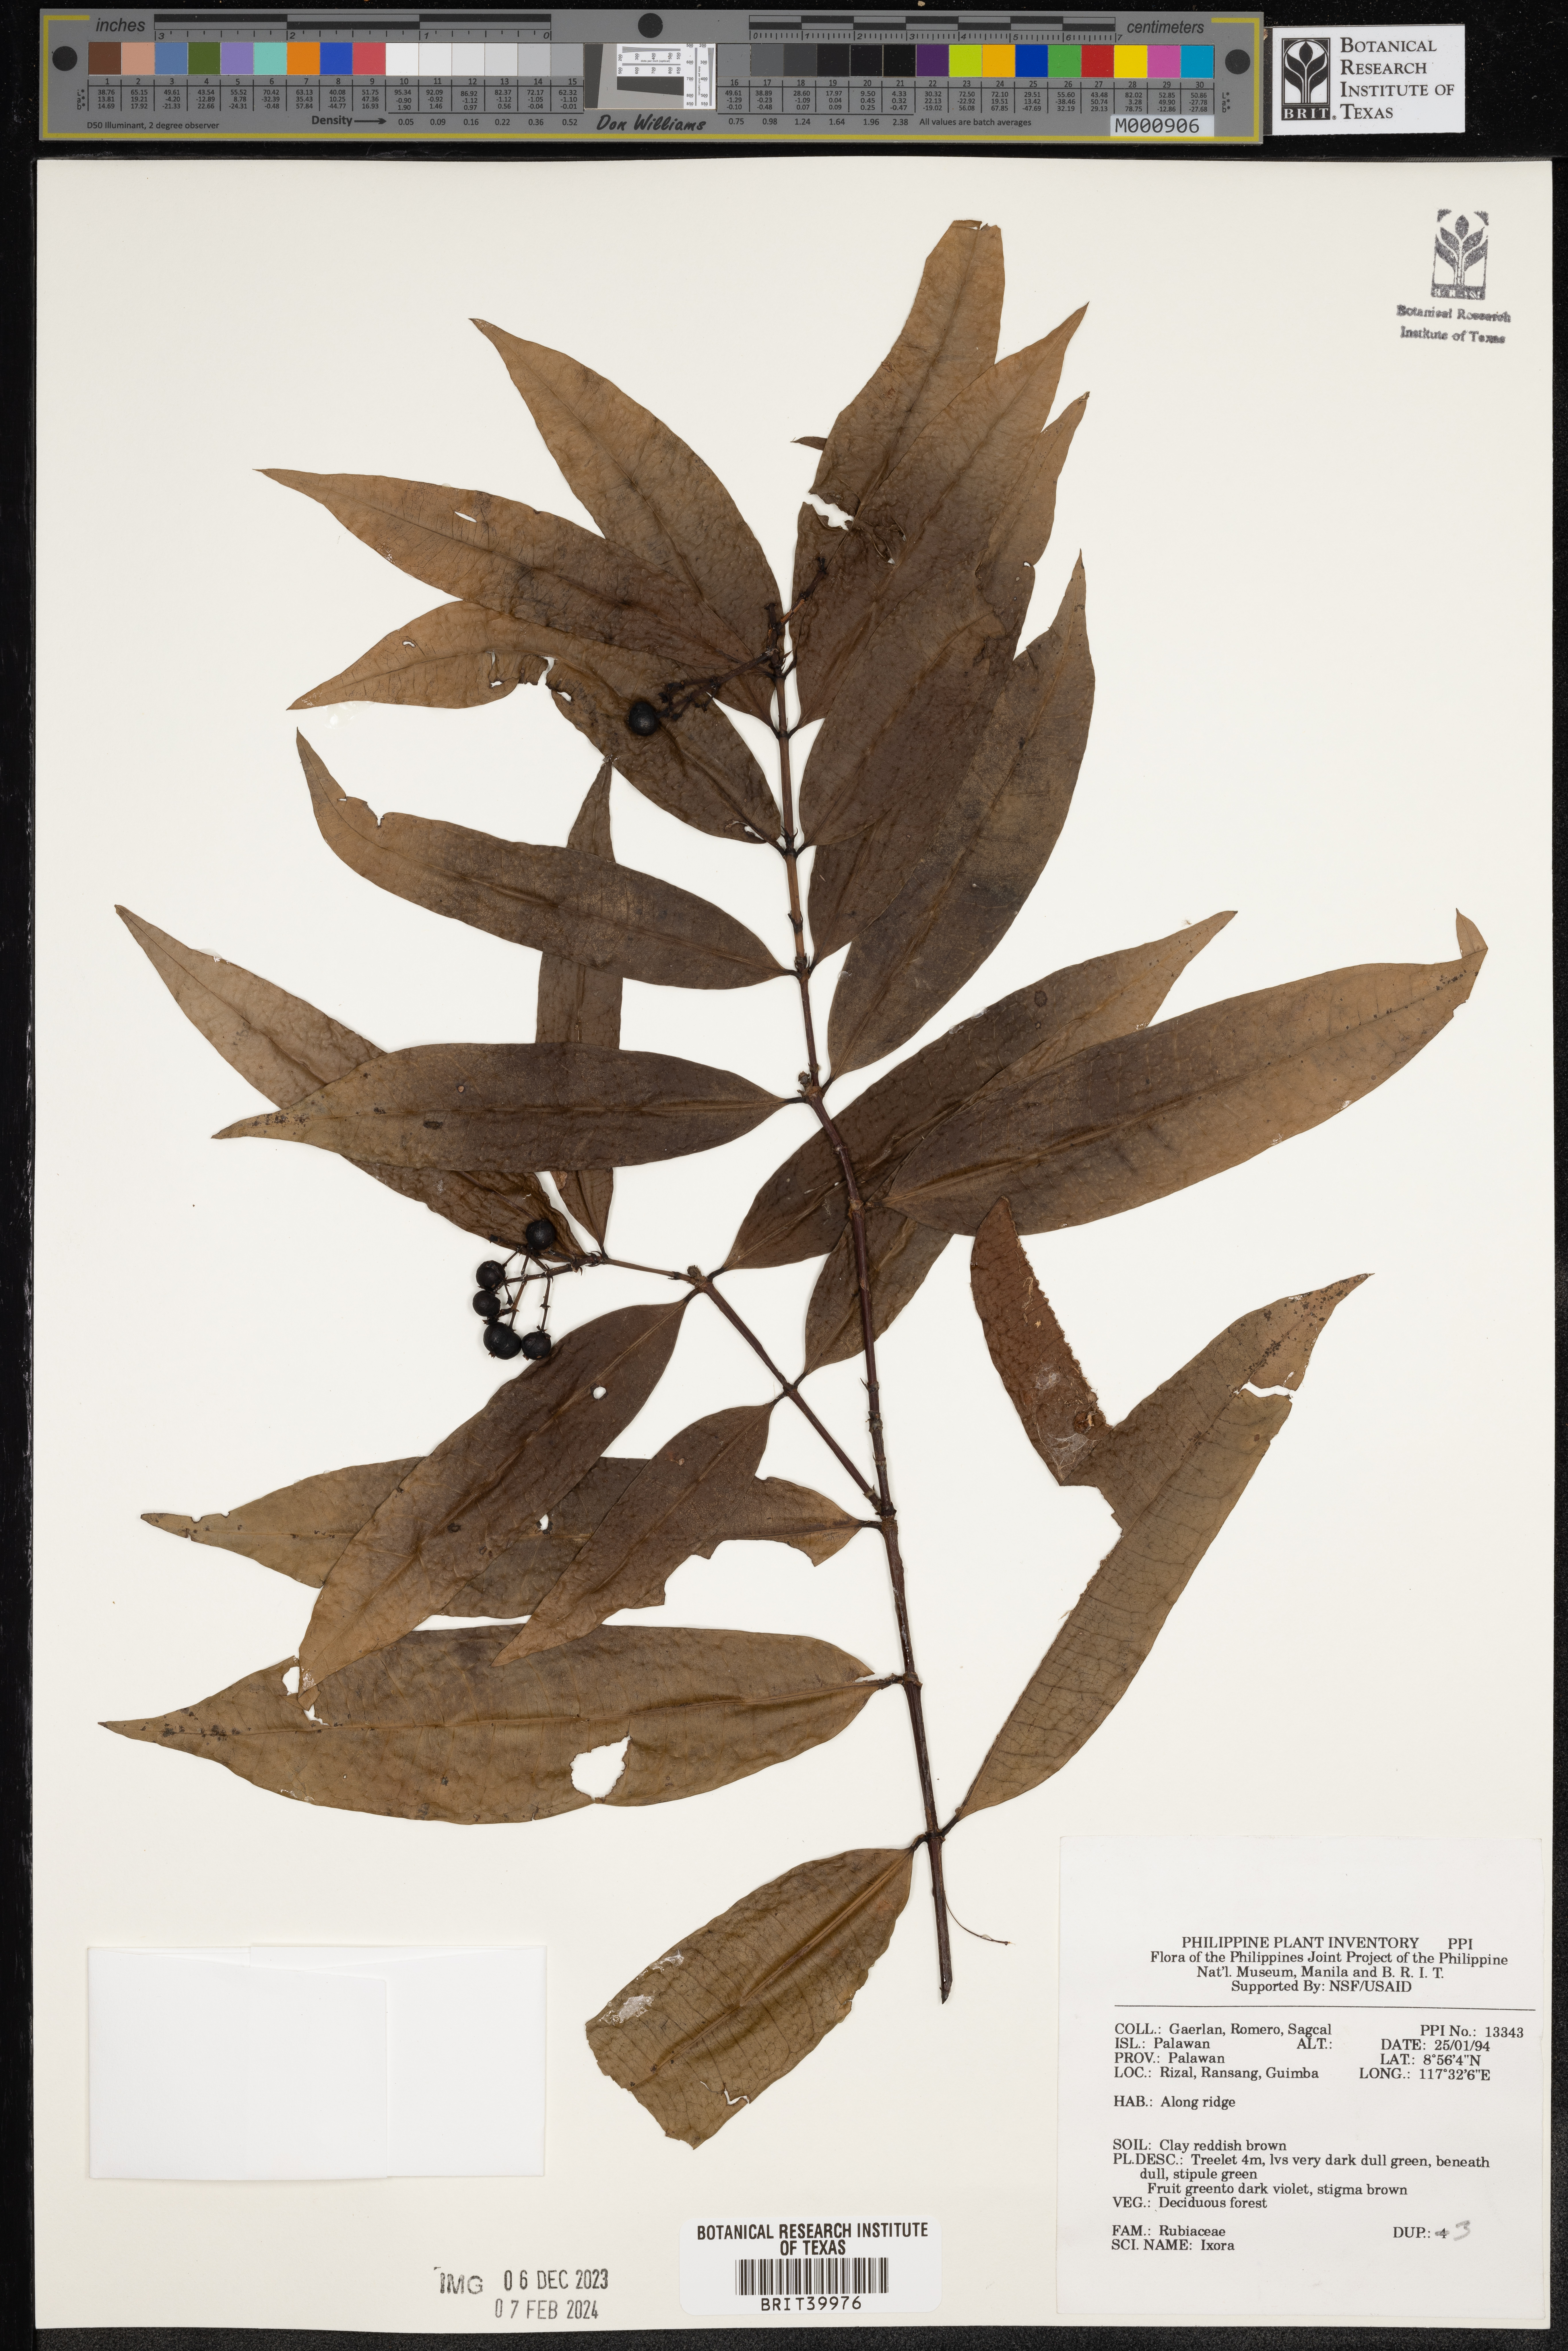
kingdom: Plantae
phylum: Tracheophyta
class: Magnoliopsida
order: Gentianales
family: Rubiaceae
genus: Ixora
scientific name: Ixora
